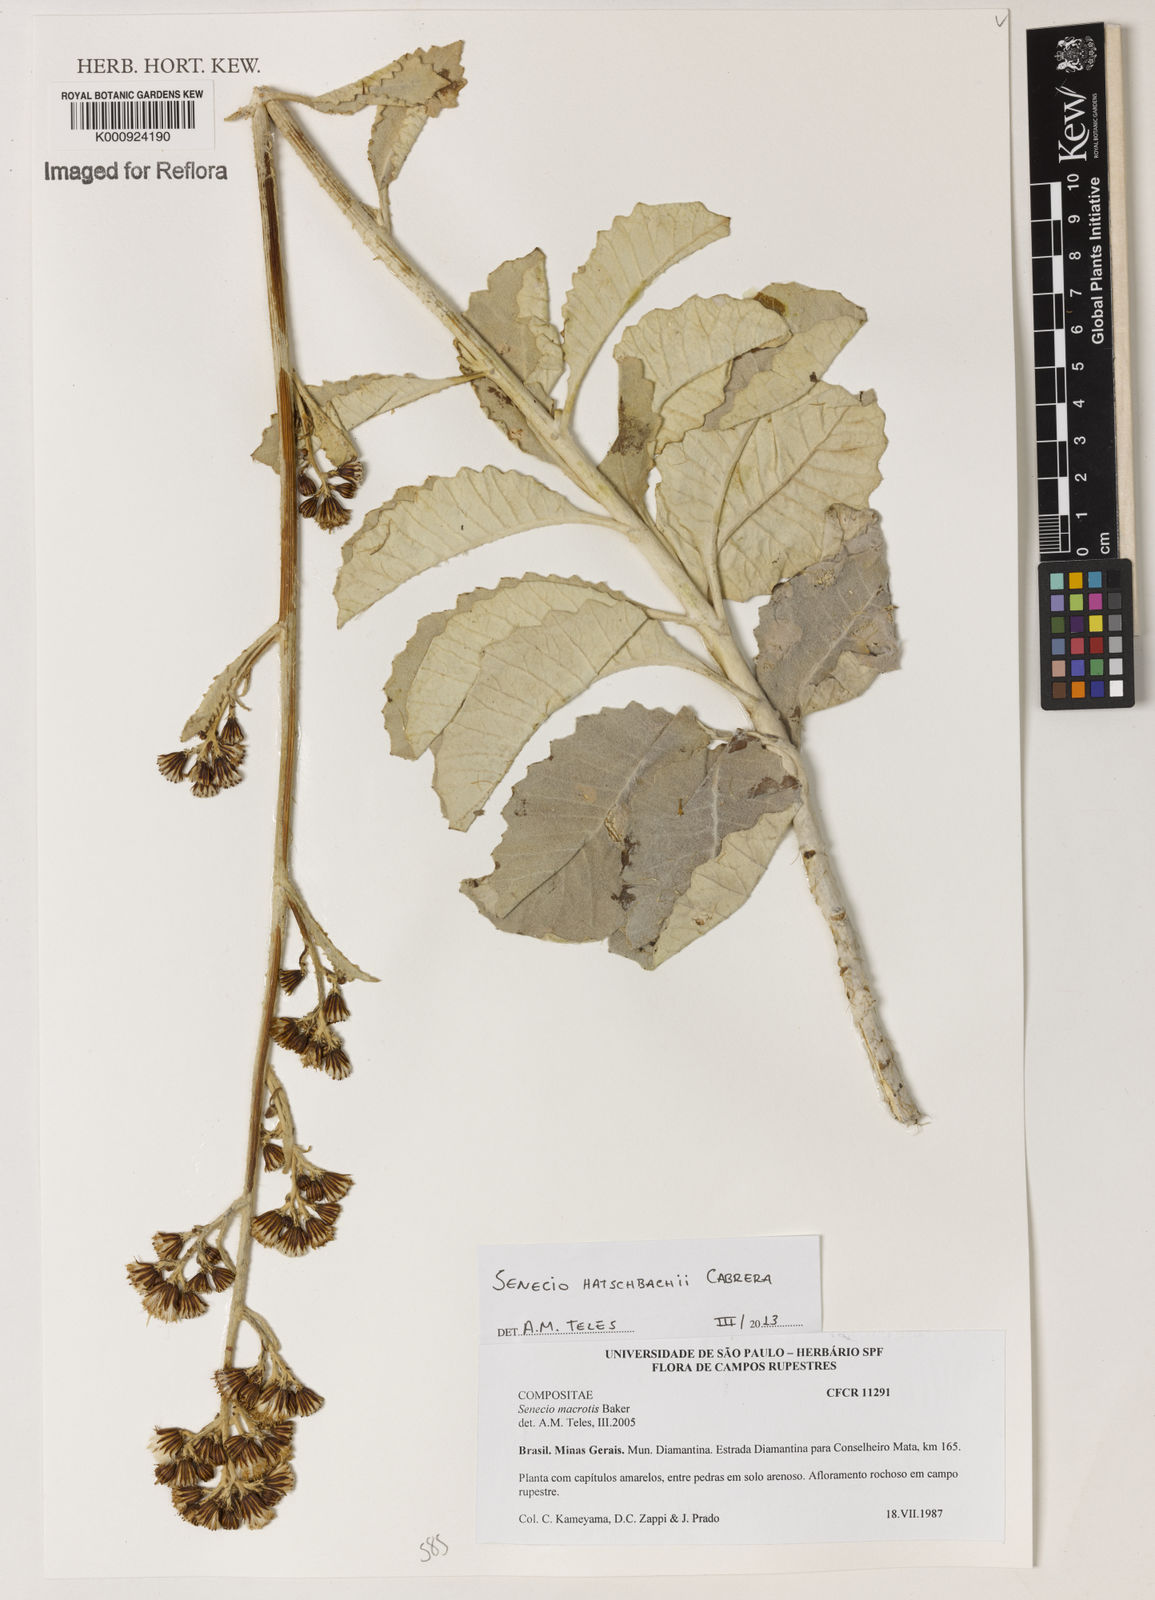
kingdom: Plantae
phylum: Tracheophyta
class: Magnoliopsida
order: Asterales
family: Asteraceae
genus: Senecio
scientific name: Senecio hatschbachii
